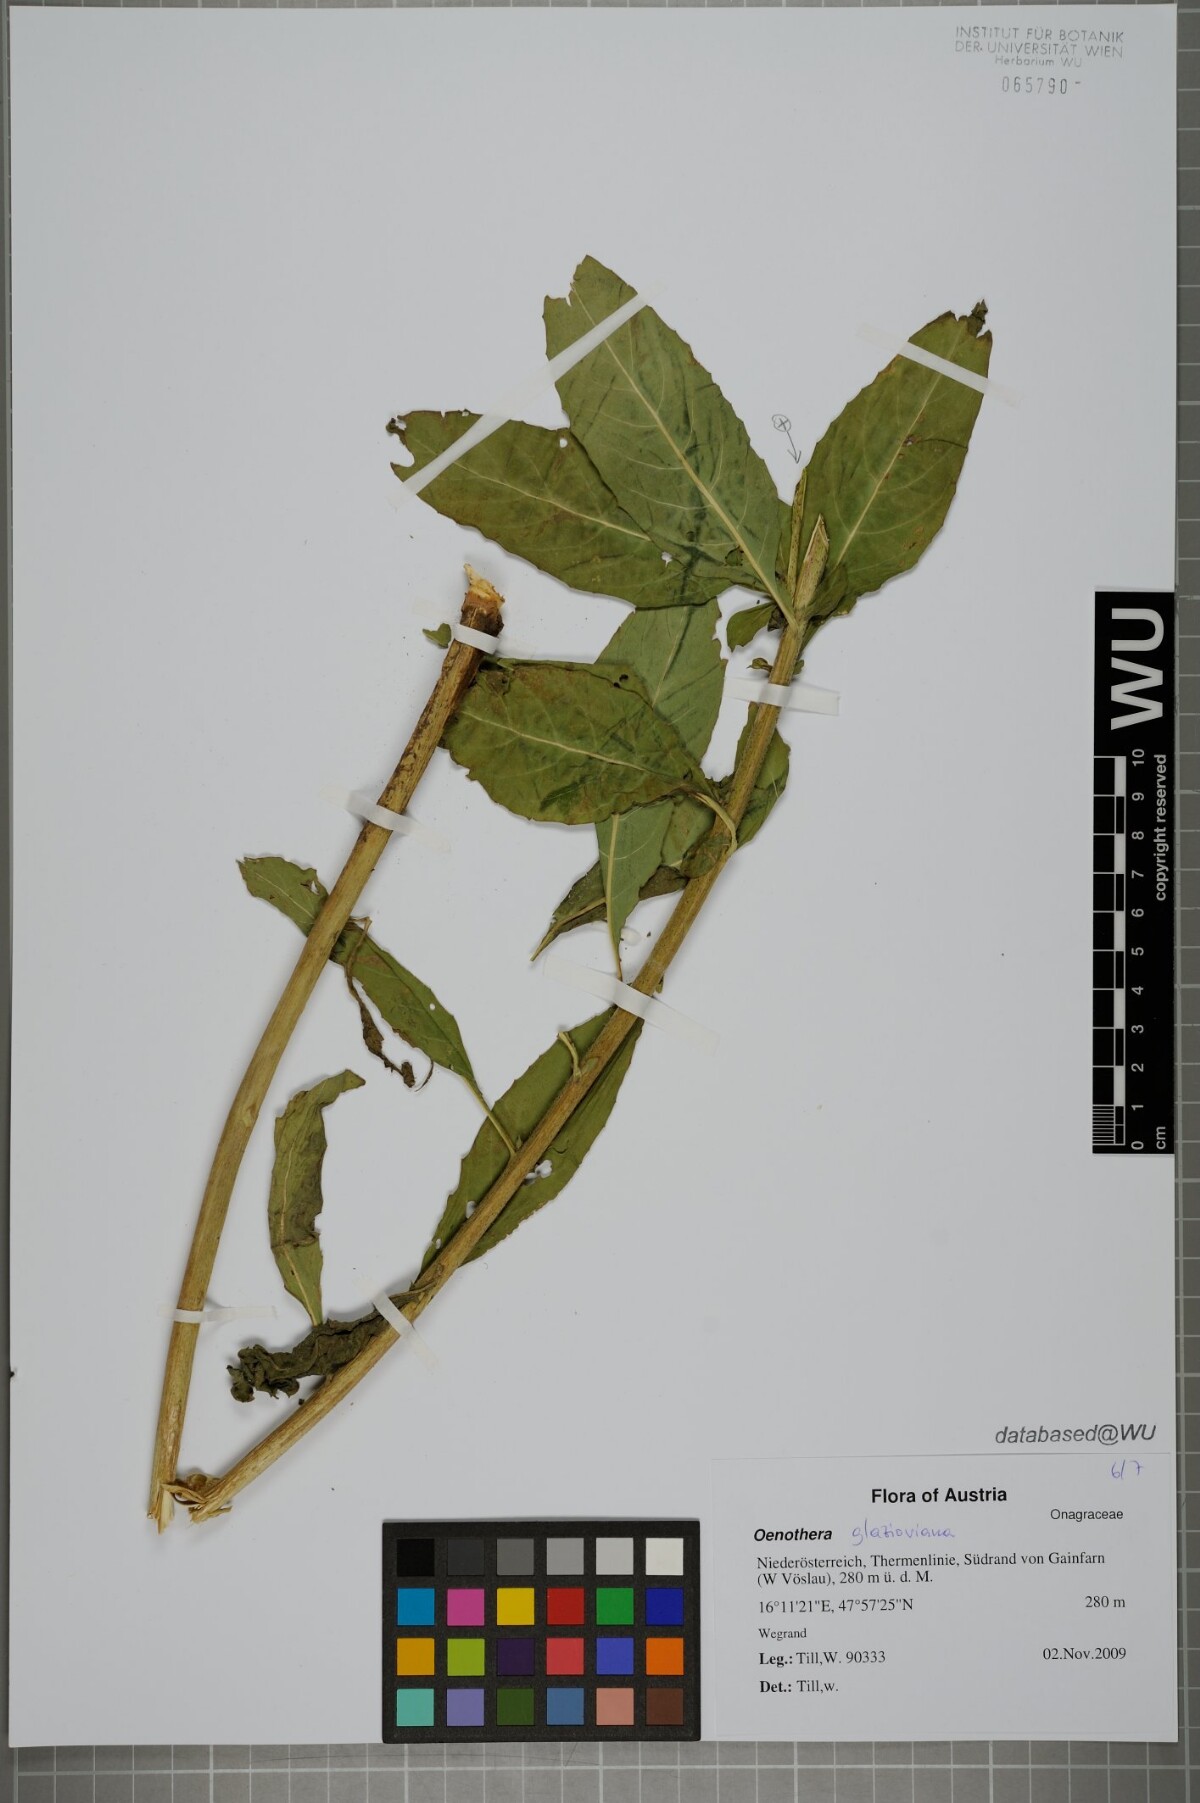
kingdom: Plantae
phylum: Tracheophyta
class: Magnoliopsida
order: Myrtales
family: Onagraceae
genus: Oenothera
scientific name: Oenothera glazioviana
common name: Large-flowered evening-primrose
